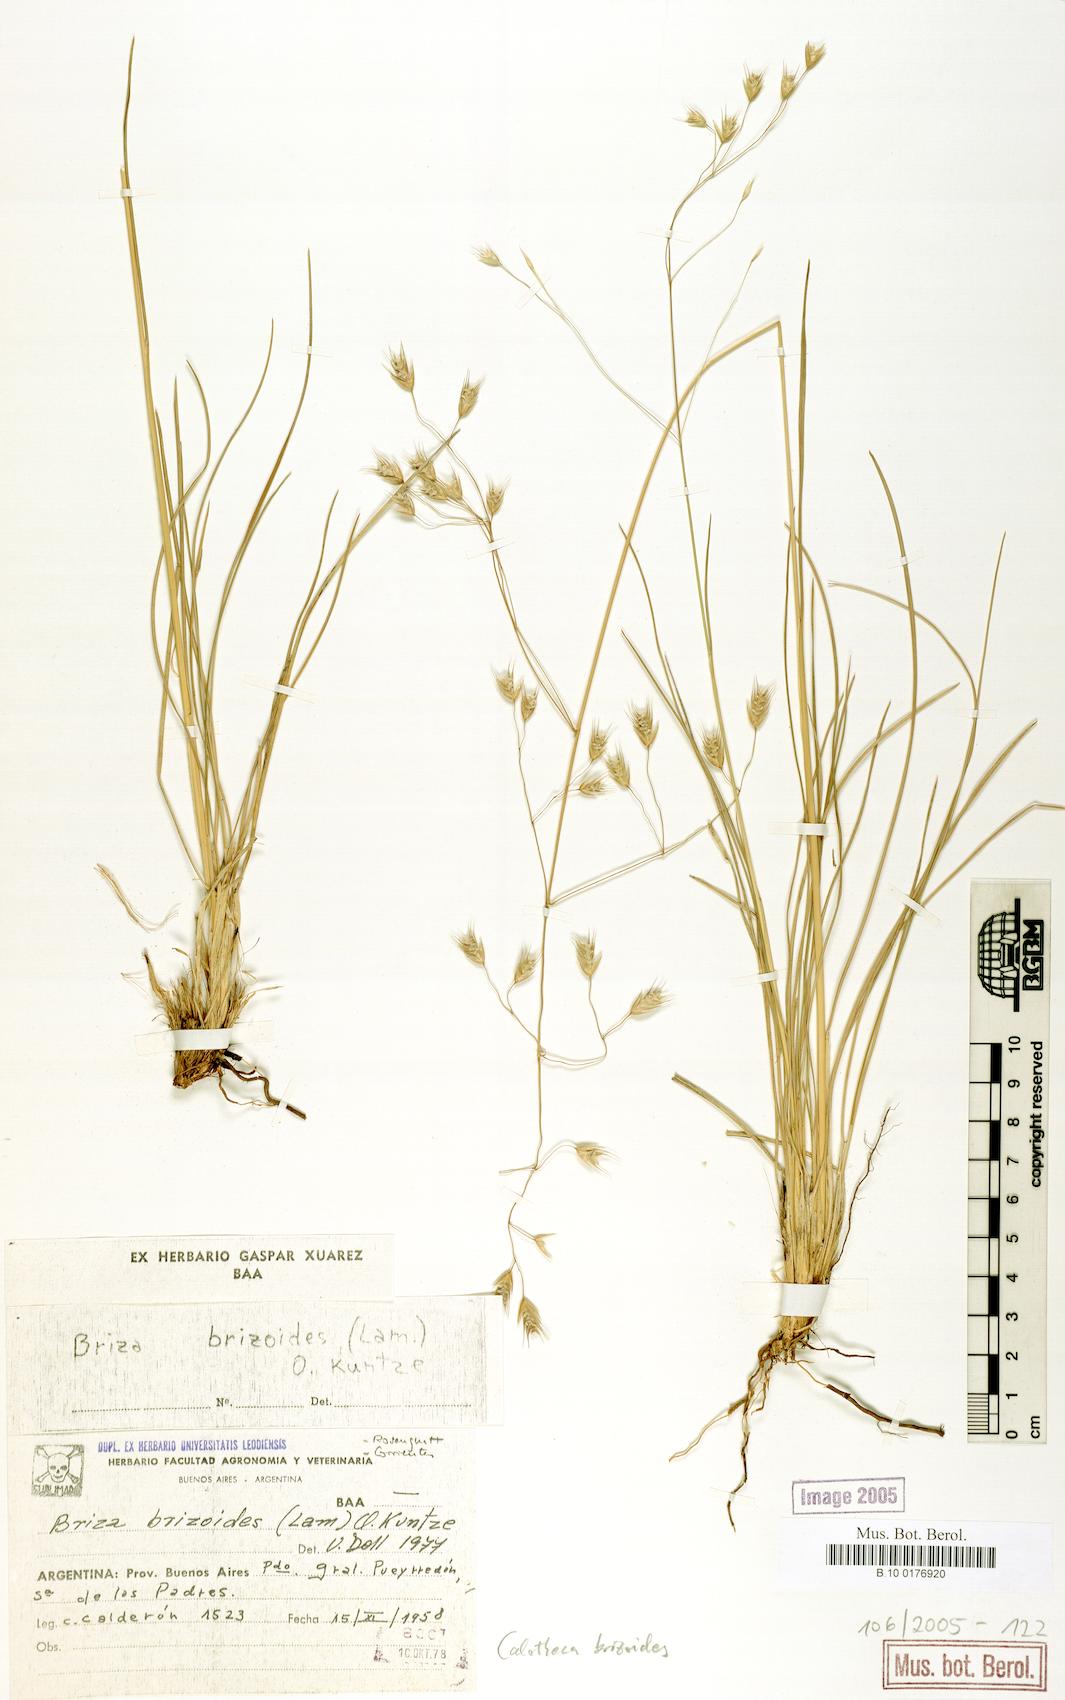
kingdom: Plantae
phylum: Tracheophyta
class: Liliopsida
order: Poales
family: Poaceae
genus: Calotheca
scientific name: Calotheca brizoides
